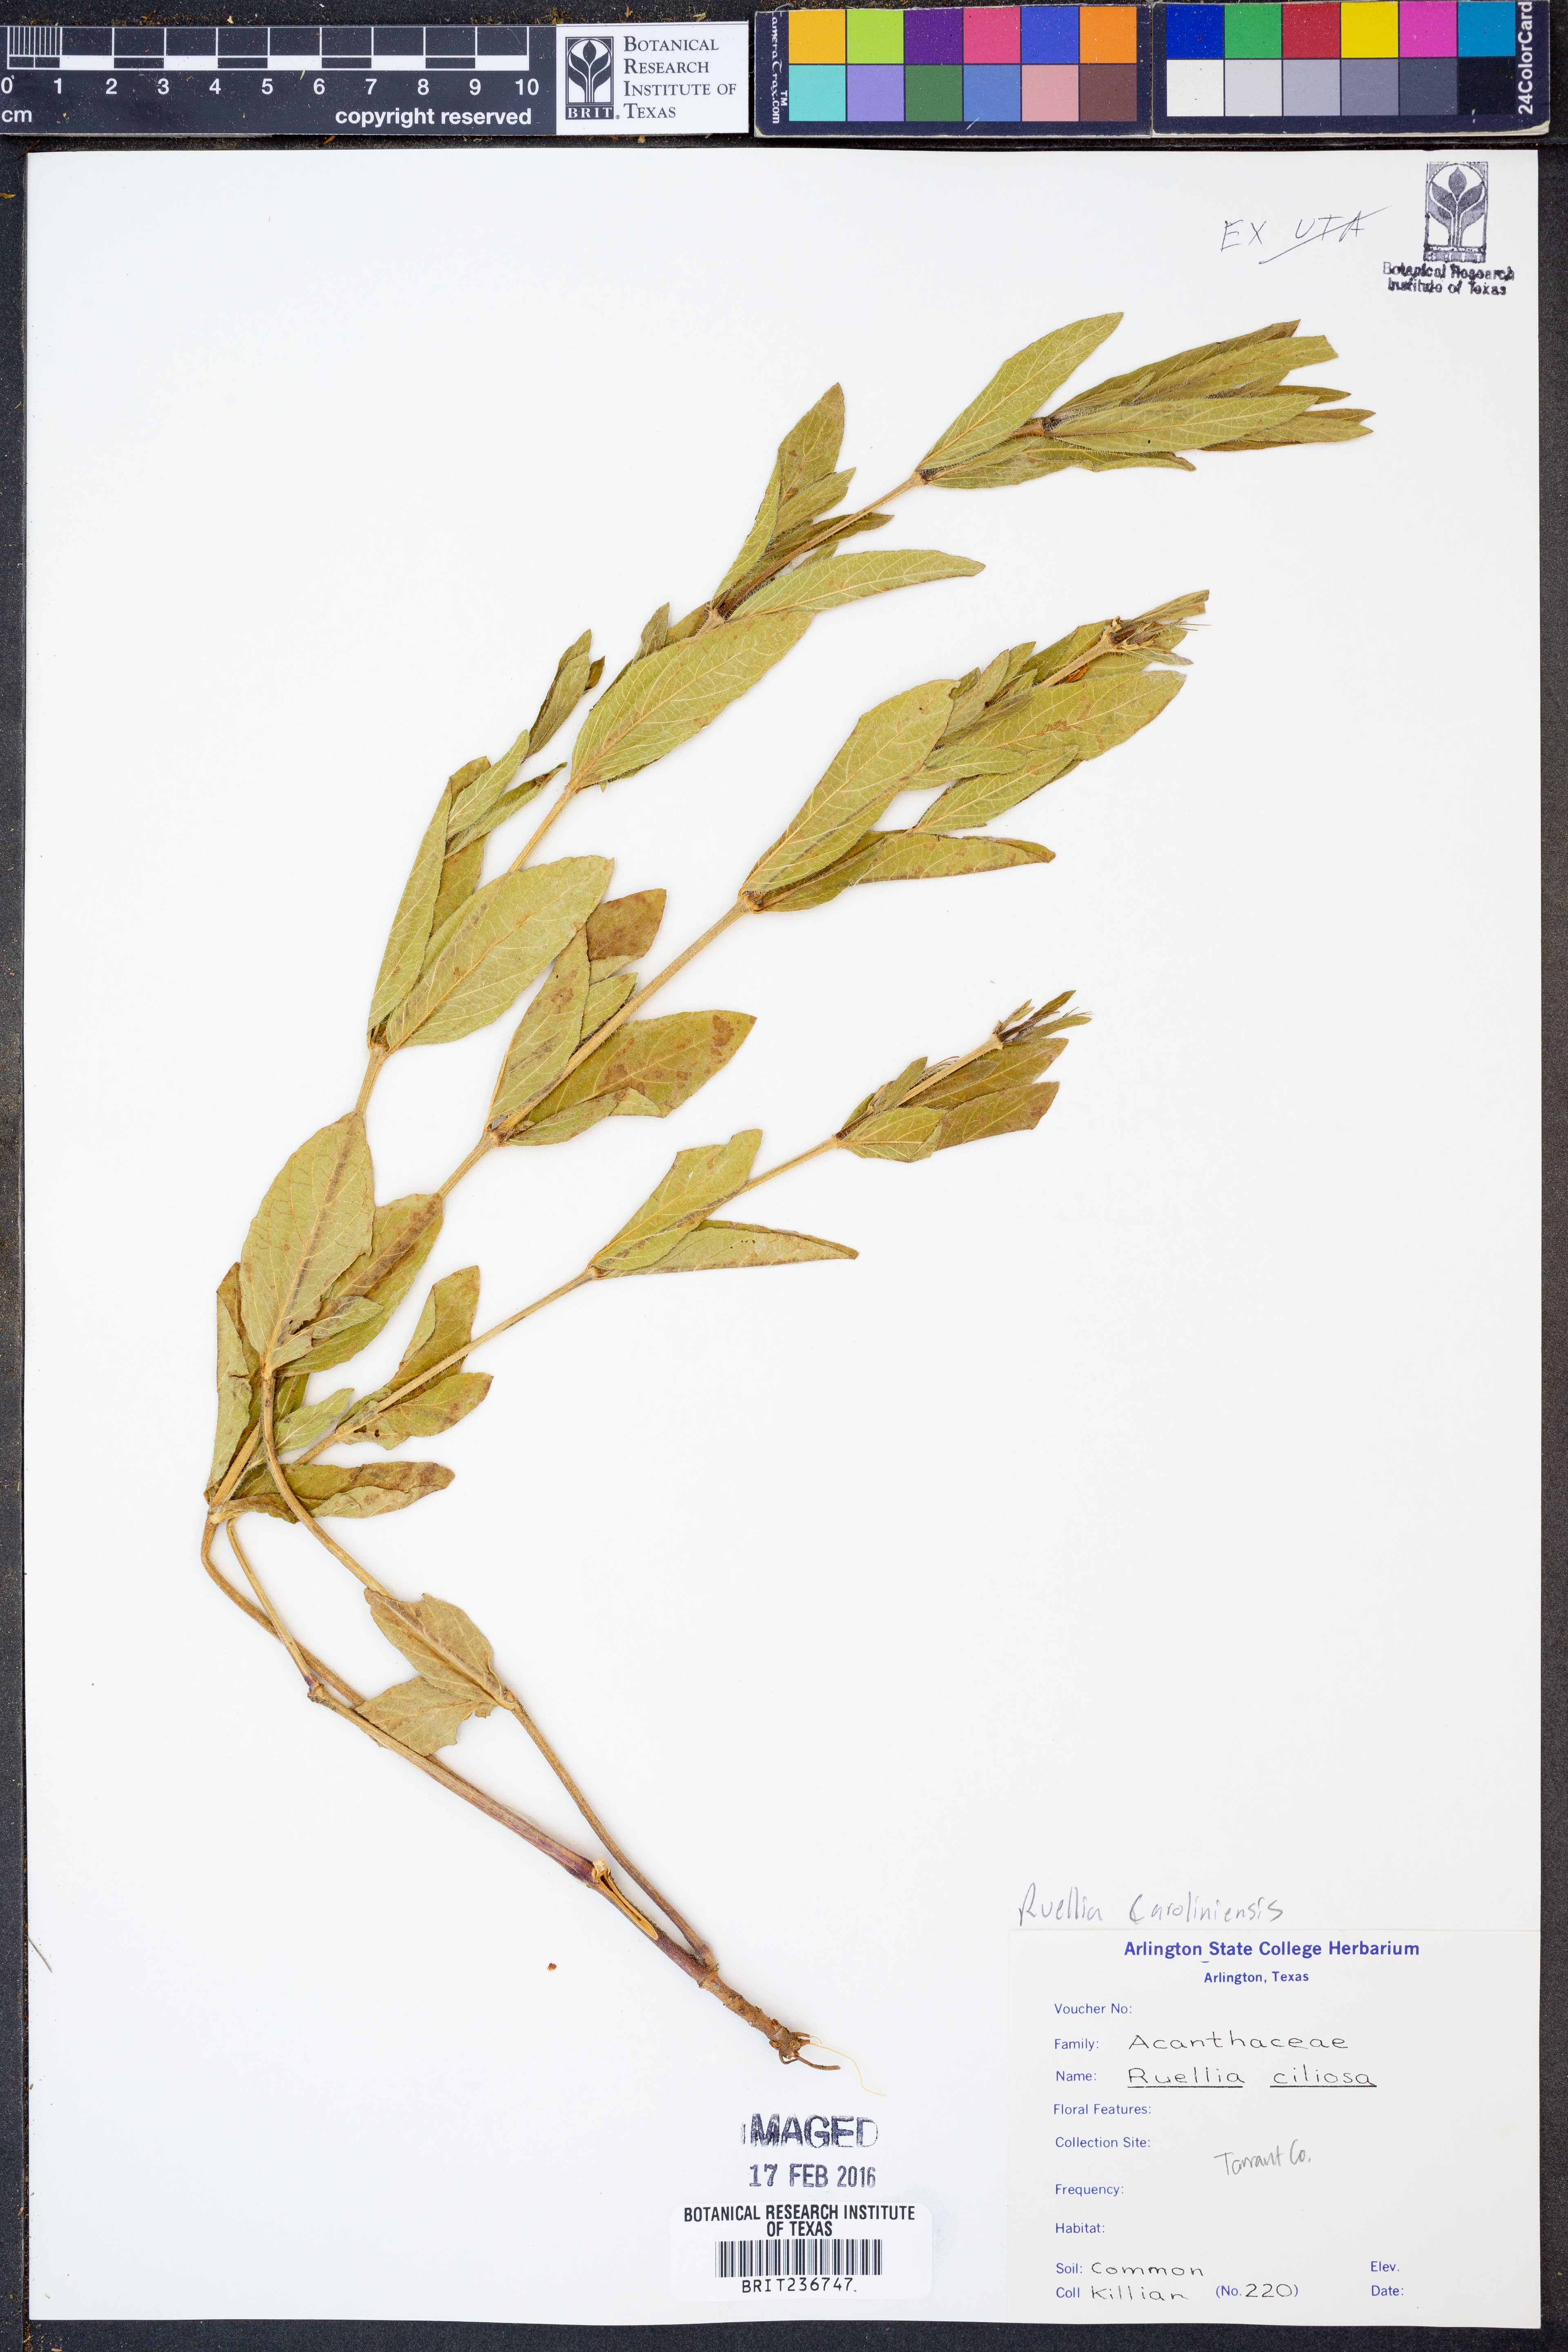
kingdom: Plantae
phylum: Tracheophyta
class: Magnoliopsida
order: Lamiales
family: Acanthaceae
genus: Ruellia
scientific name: Ruellia caroliniensis
